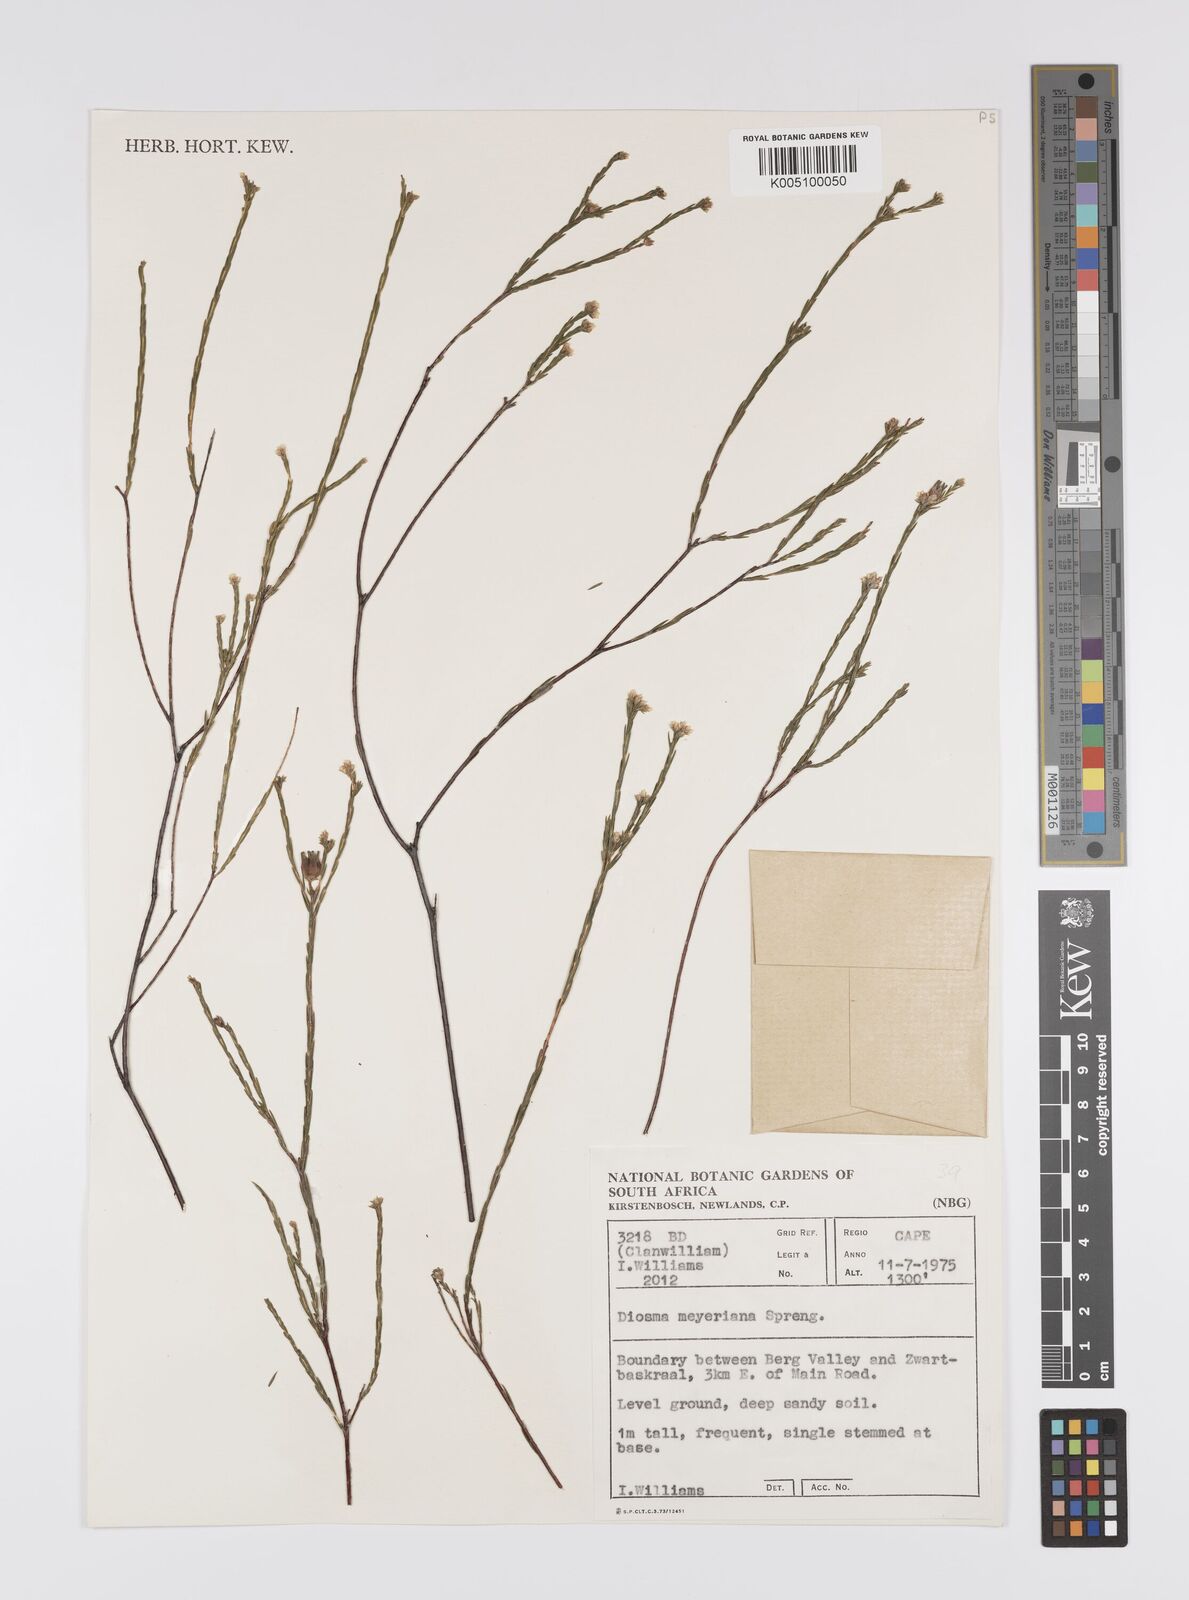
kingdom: Plantae
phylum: Tracheophyta
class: Magnoliopsida
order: Sapindales
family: Rutaceae
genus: Agathosma
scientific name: Agathosma virgata
